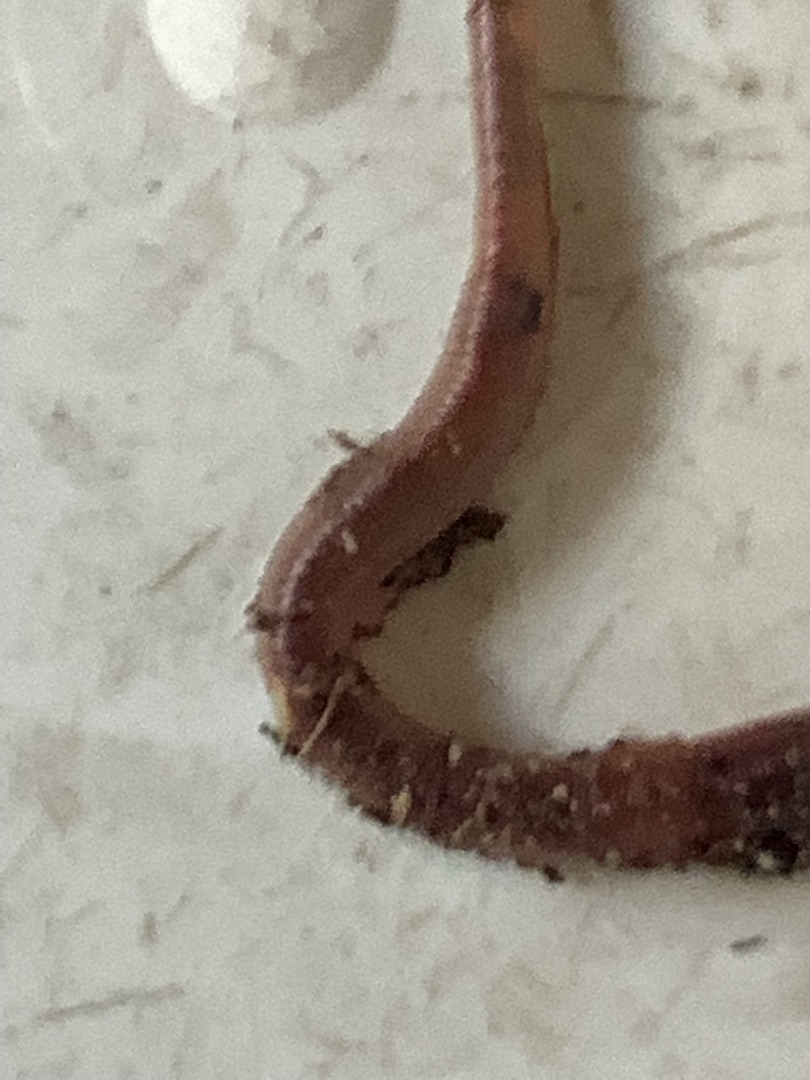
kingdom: Animalia
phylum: Annelida
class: Clitellata
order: Crassiclitellata
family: Lumbricidae
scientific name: Lumbricidae
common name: Regnorme
